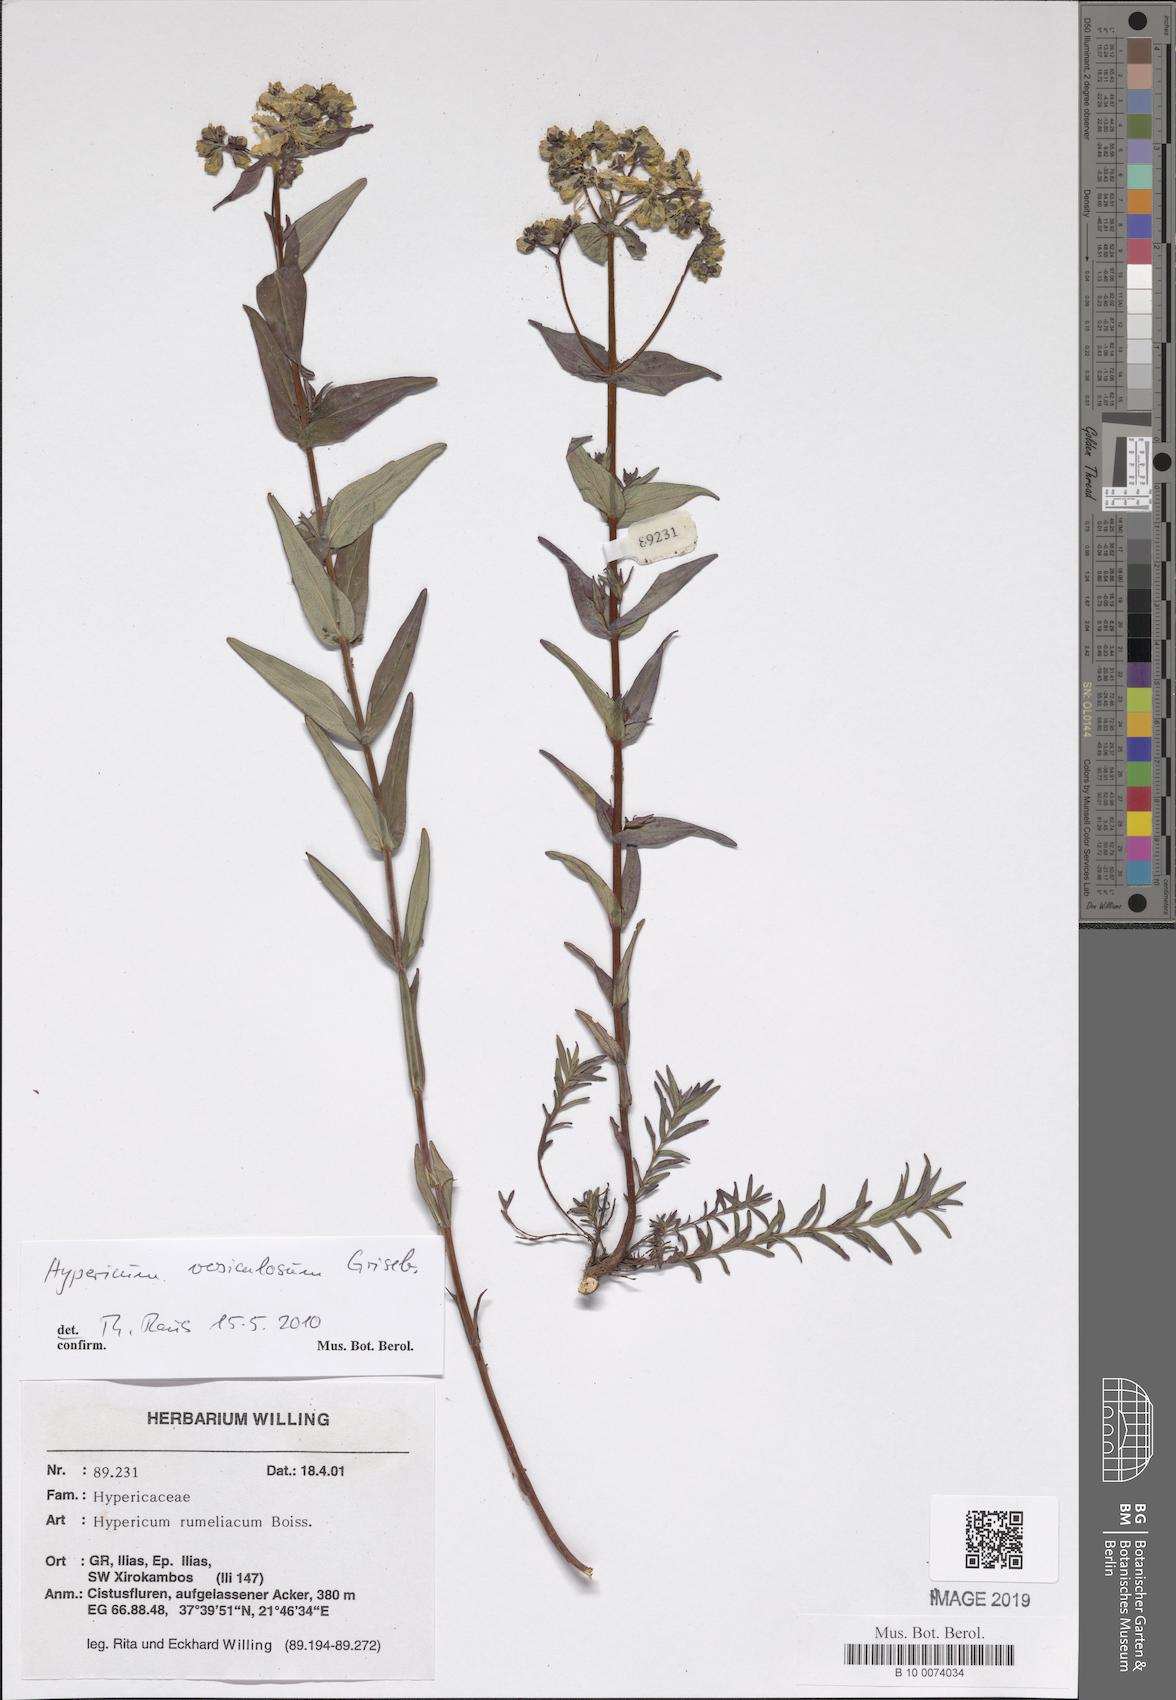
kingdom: Plantae
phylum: Tracheophyta
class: Magnoliopsida
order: Malpighiales
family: Hypericaceae
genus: Hypericum
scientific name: Hypericum perfoliatum
